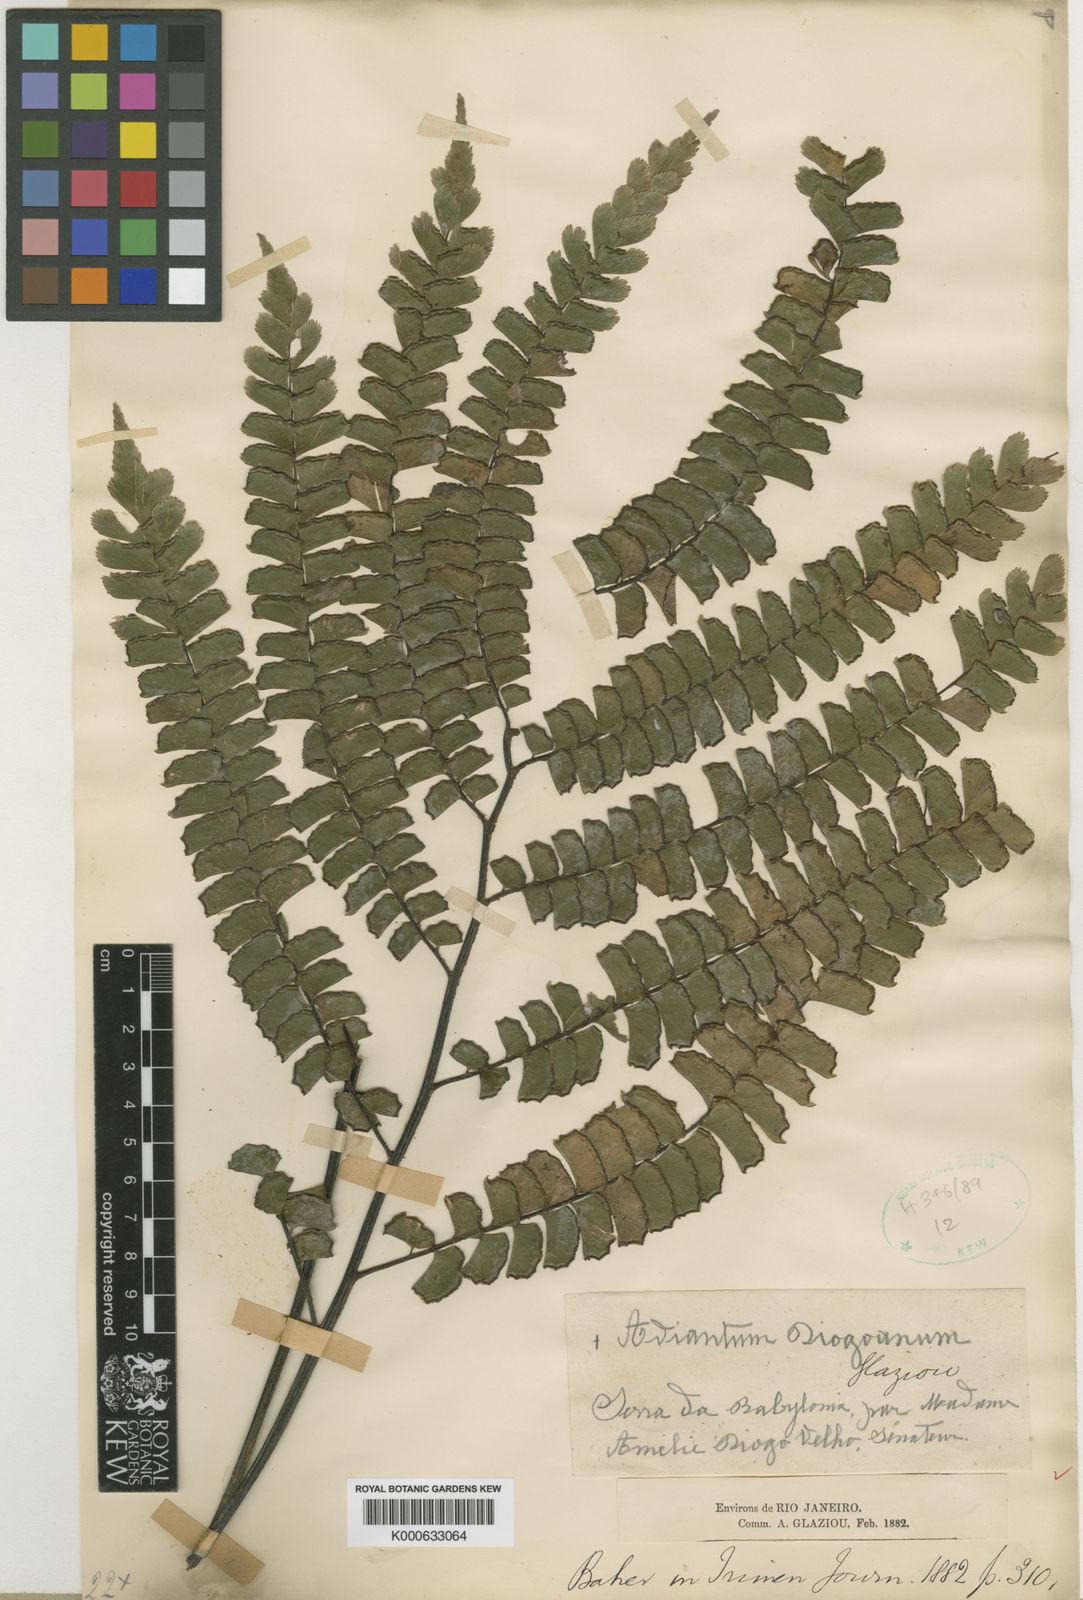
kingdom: Plantae
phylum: Tracheophyta
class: Polypodiopsida
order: Polypodiales
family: Pteridaceae
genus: Adiantum
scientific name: Adiantum
